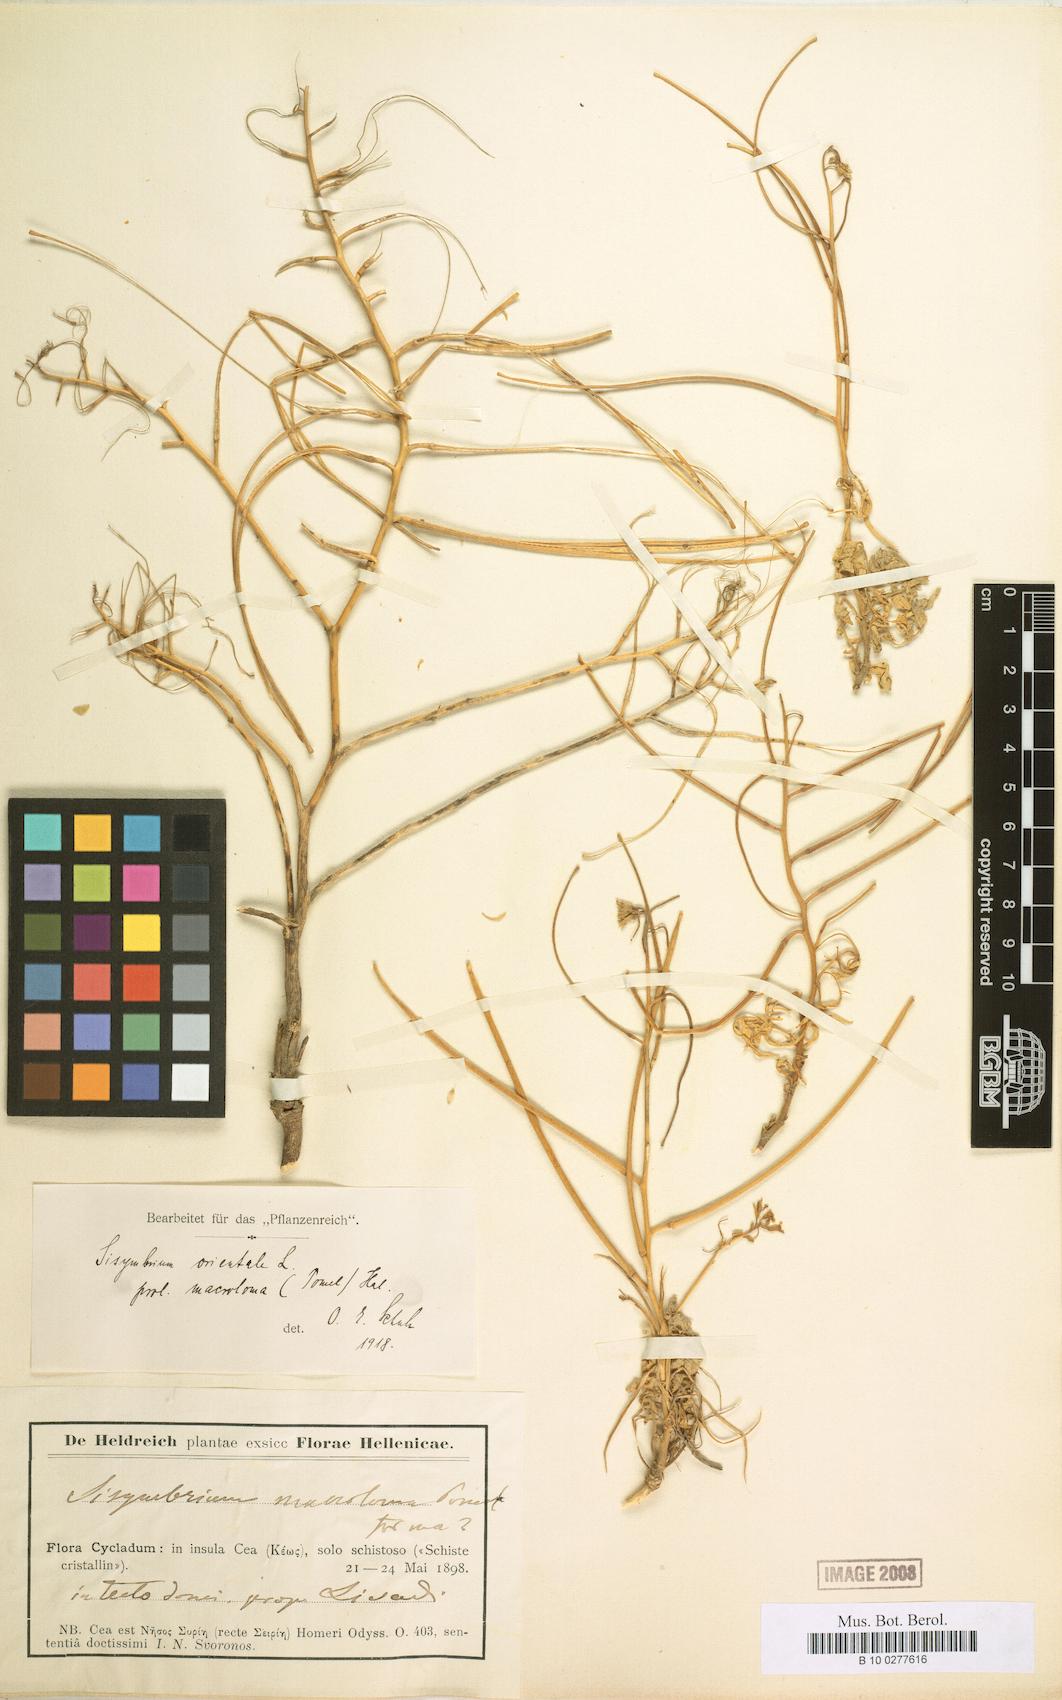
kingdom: Plantae
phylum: Tracheophyta
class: Magnoliopsida
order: Brassicales
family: Brassicaceae
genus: Sisymbrium
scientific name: Sisymbrium macroloma
